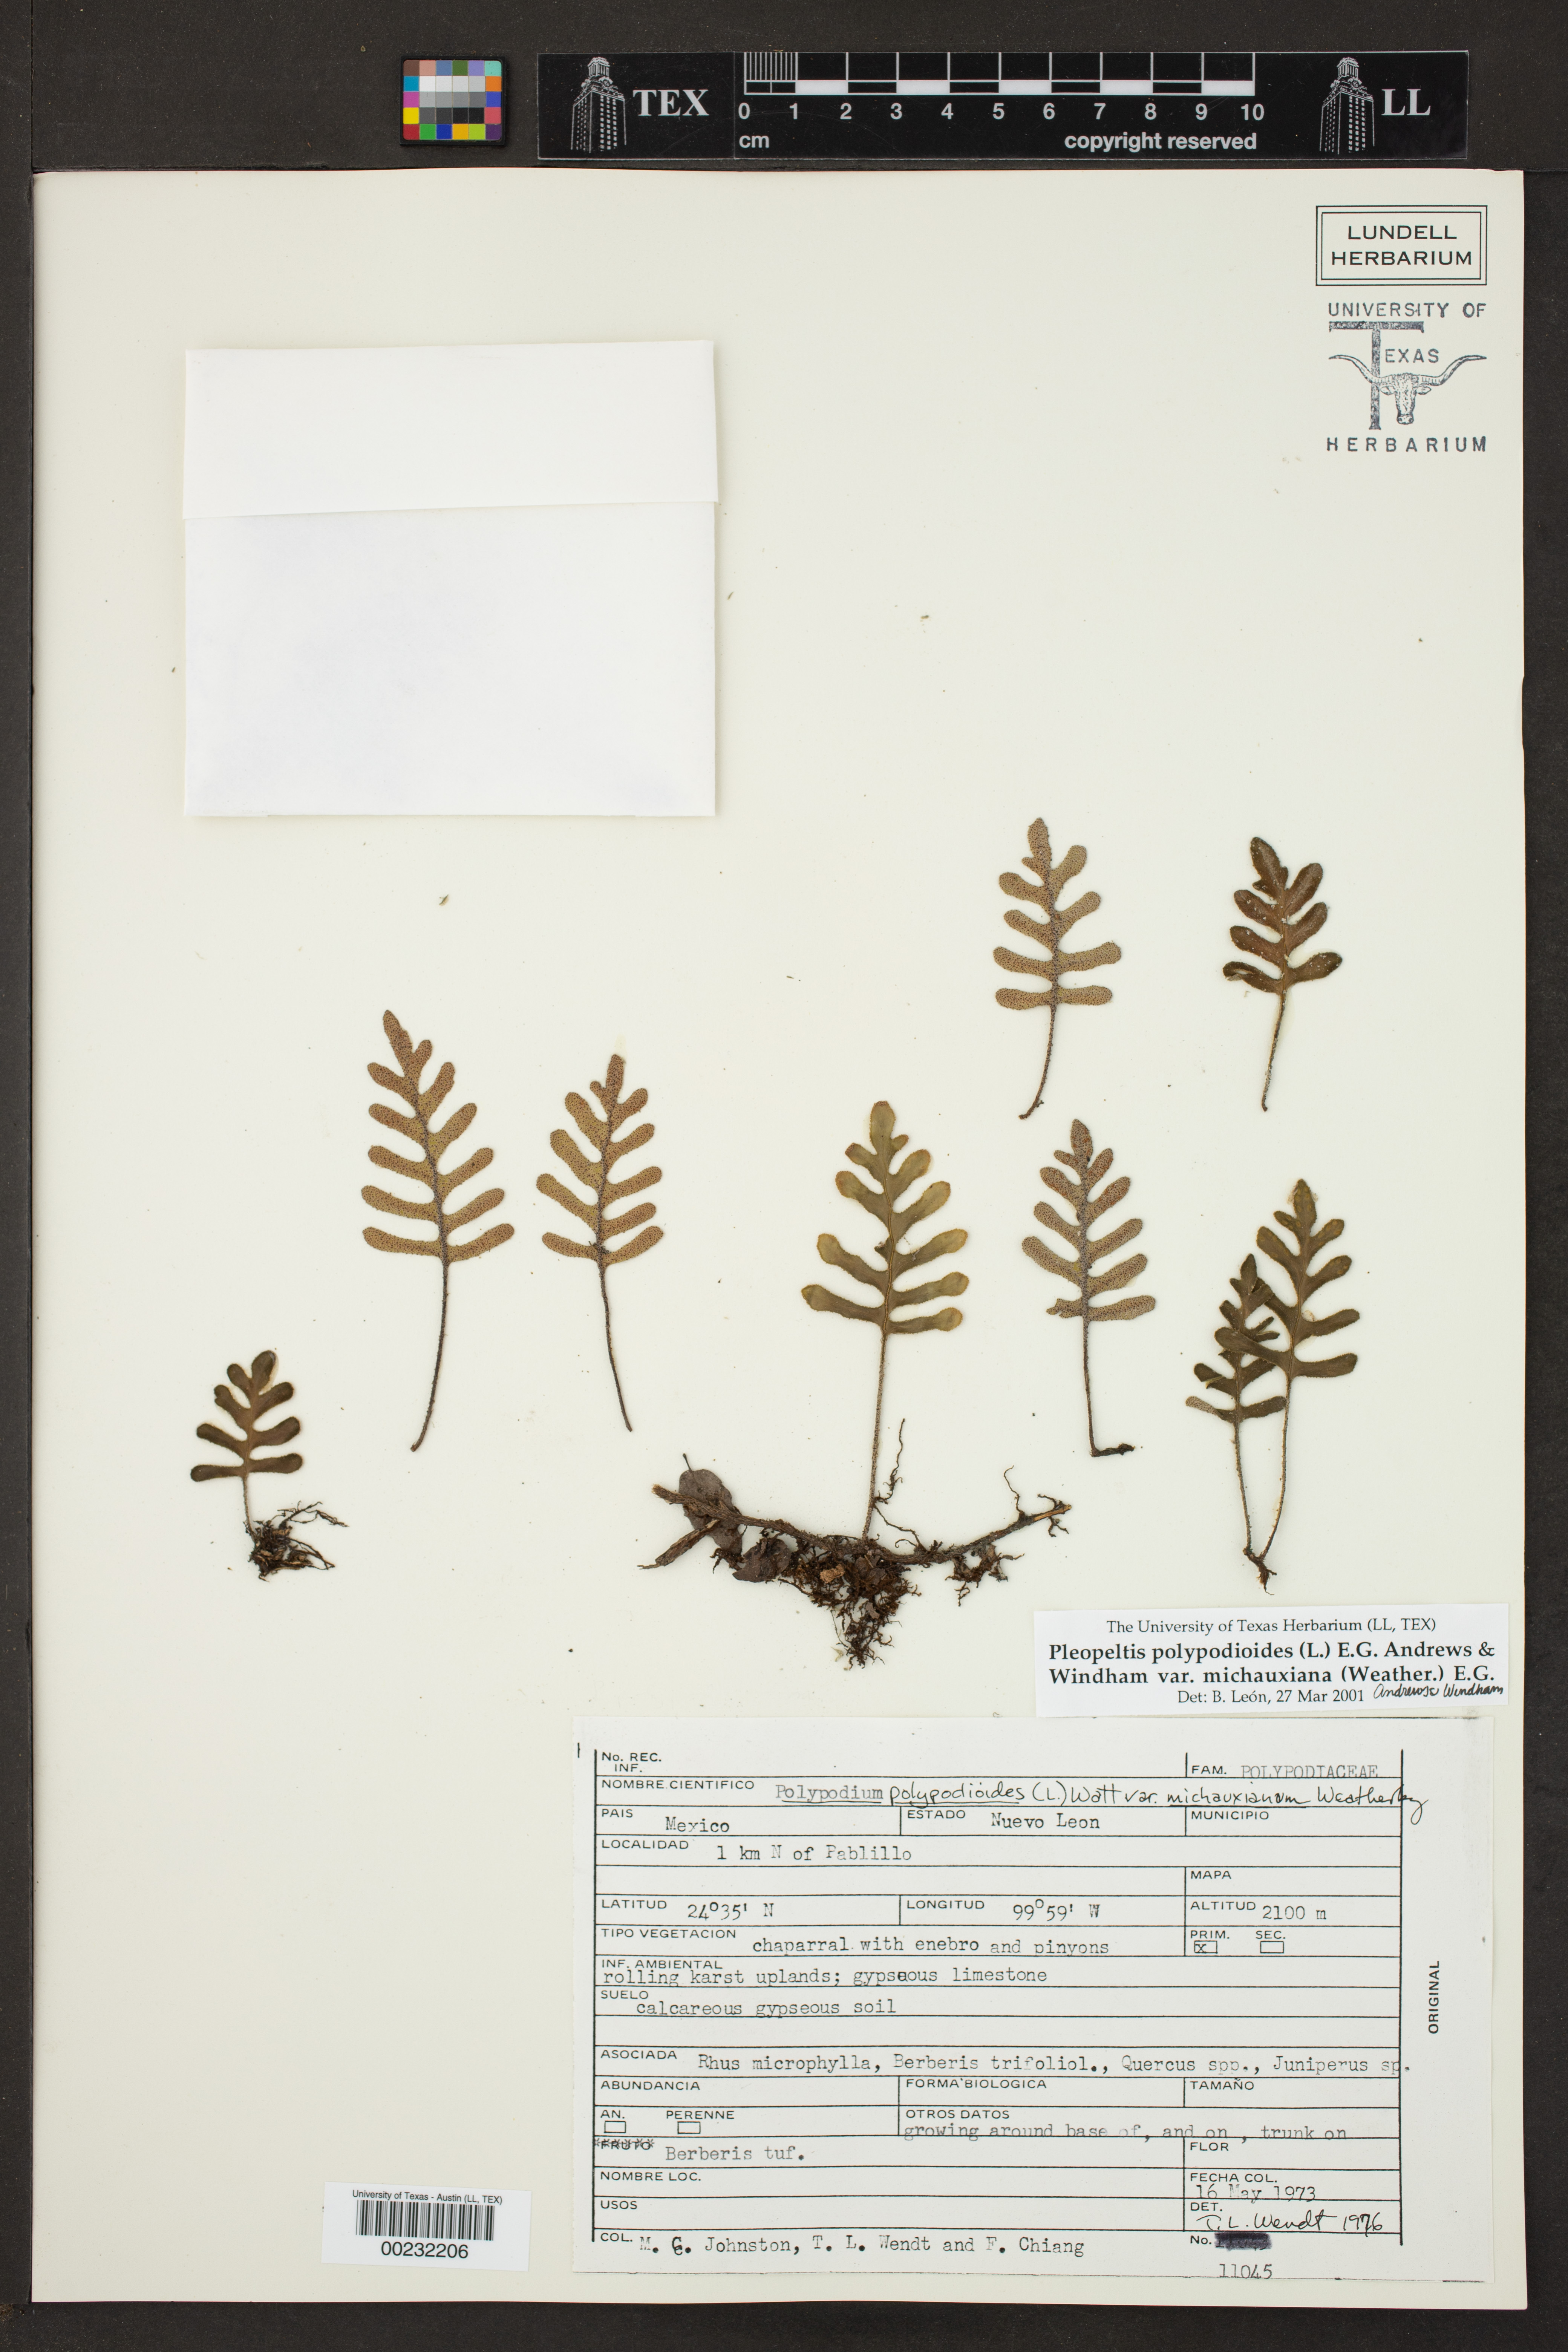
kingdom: Plantae
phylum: Tracheophyta
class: Polypodiopsida
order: Polypodiales
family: Polypodiaceae
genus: Pleopeltis
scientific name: Pleopeltis michauxiana
